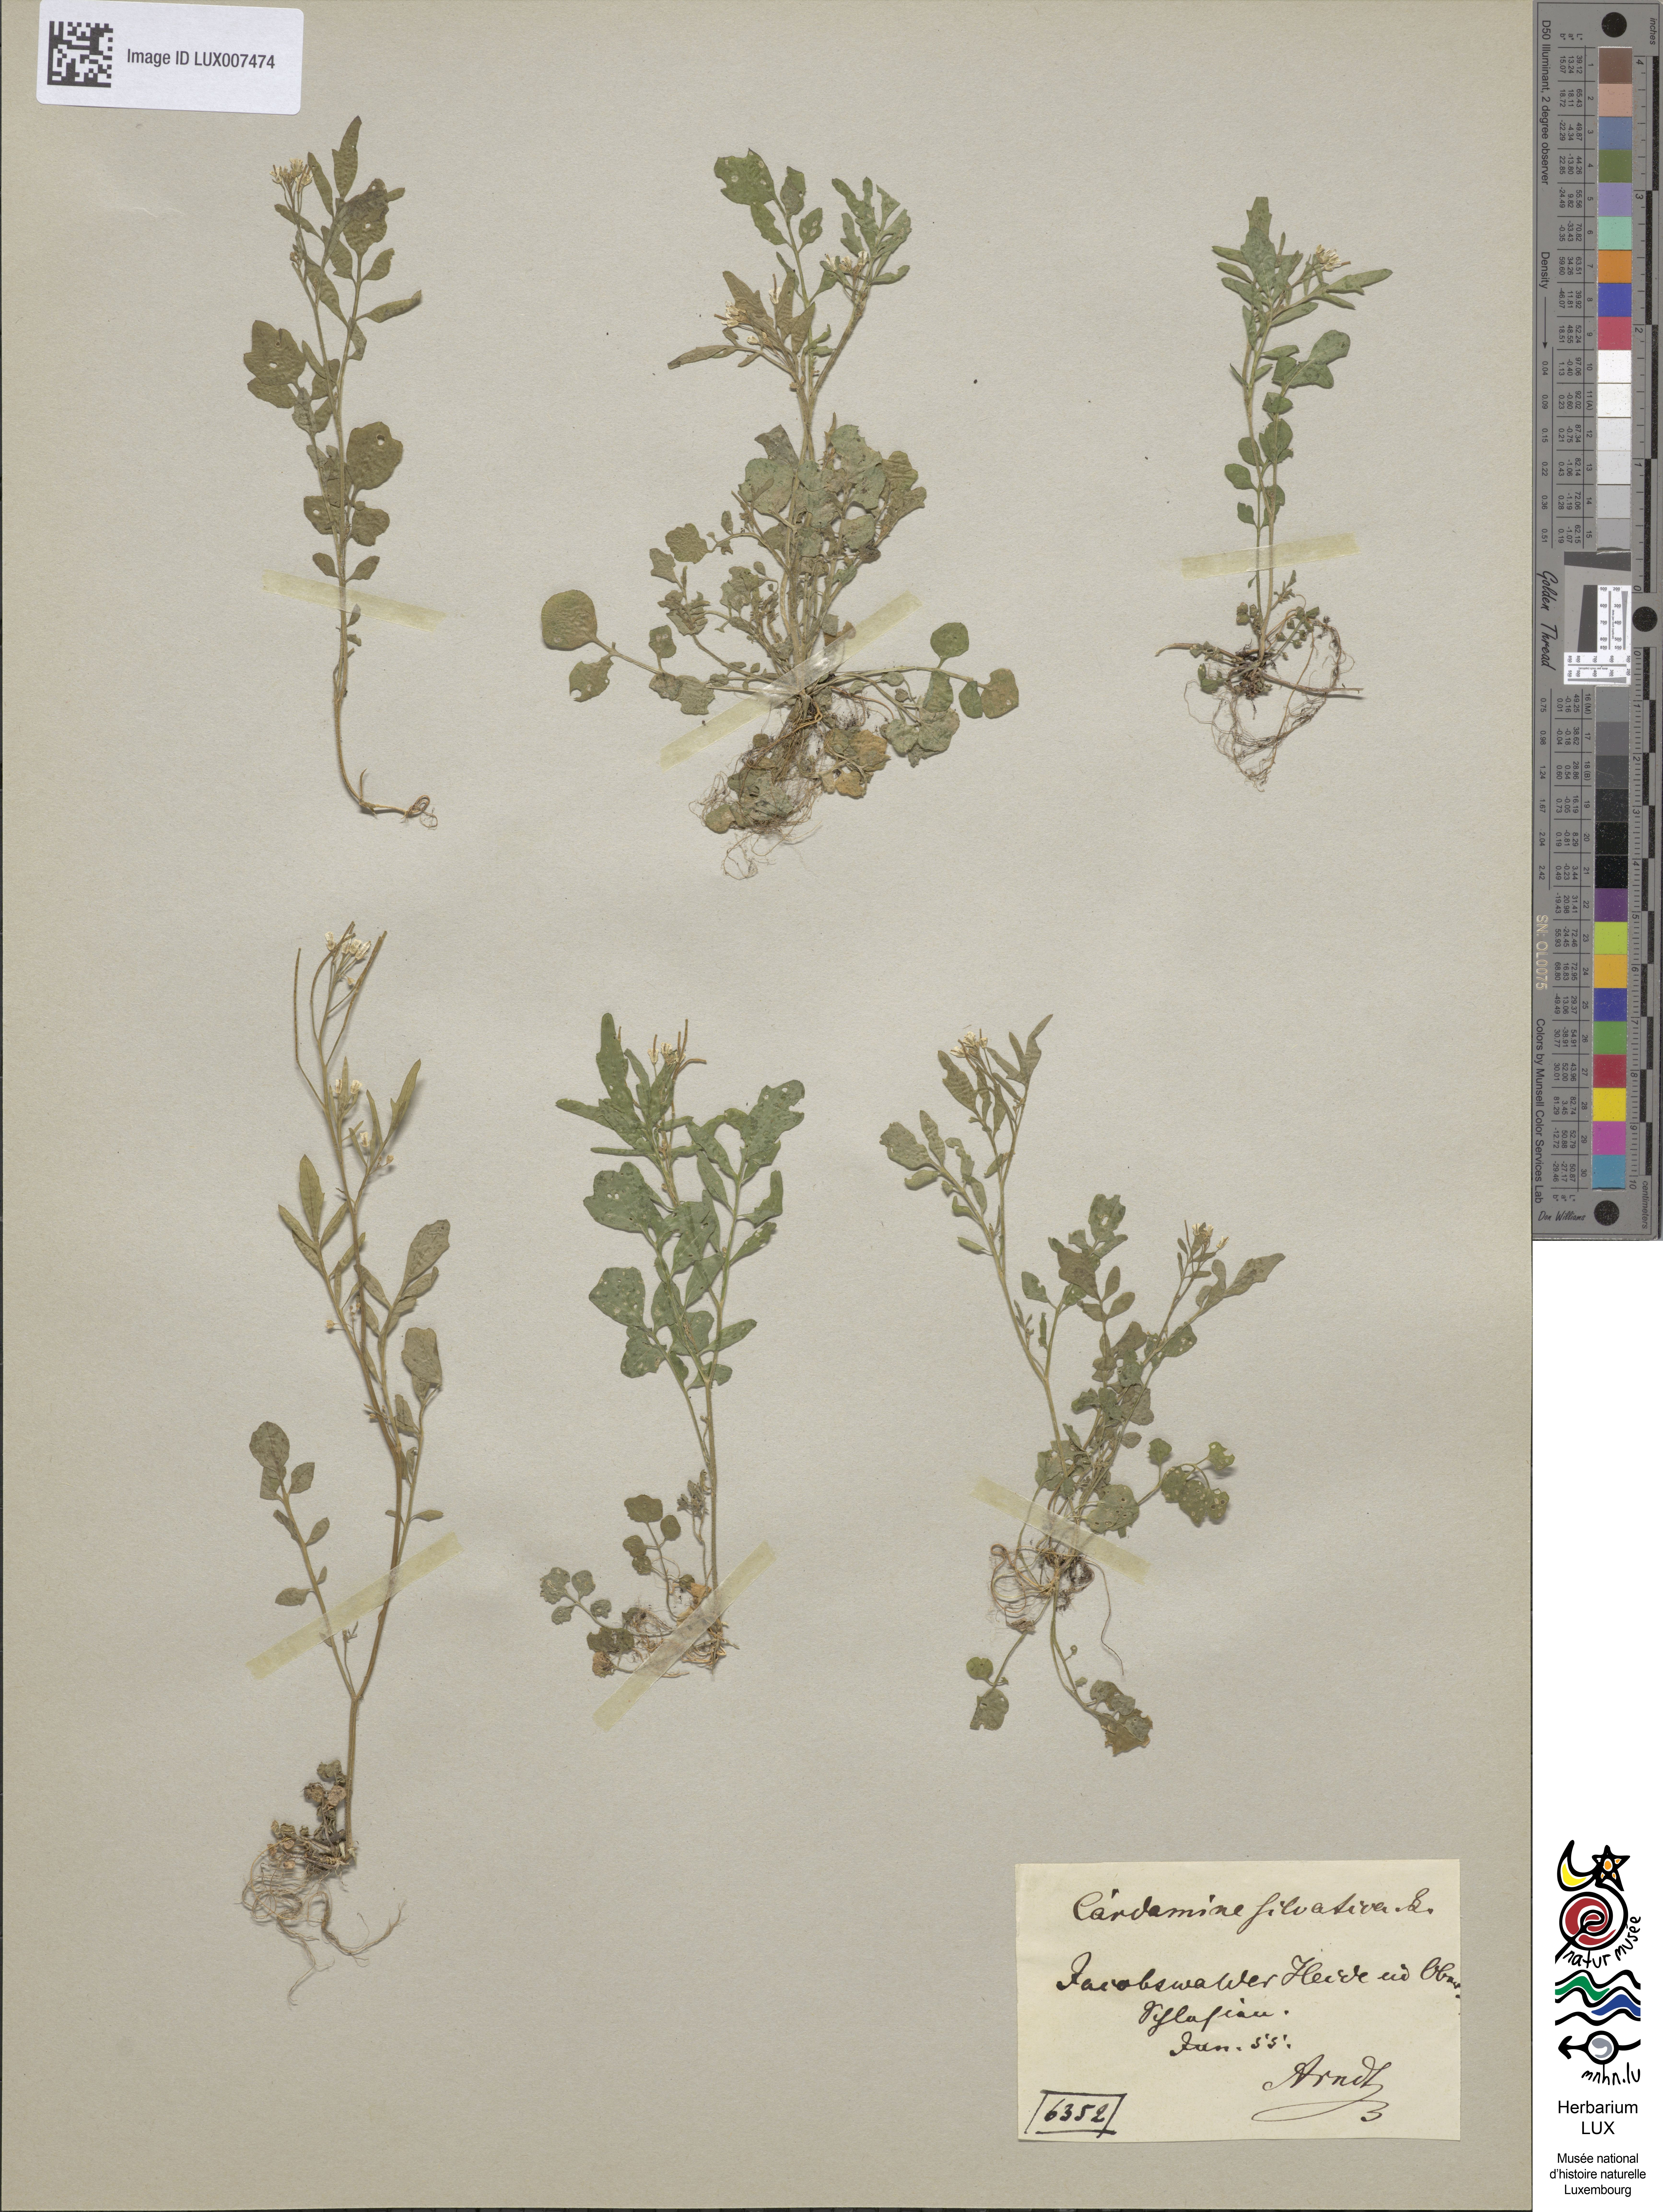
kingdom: Plantae
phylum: Tracheophyta
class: Magnoliopsida
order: Brassicales
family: Brassicaceae
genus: Cardamine
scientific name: Cardamine flexuosa
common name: Woodland bittercress
